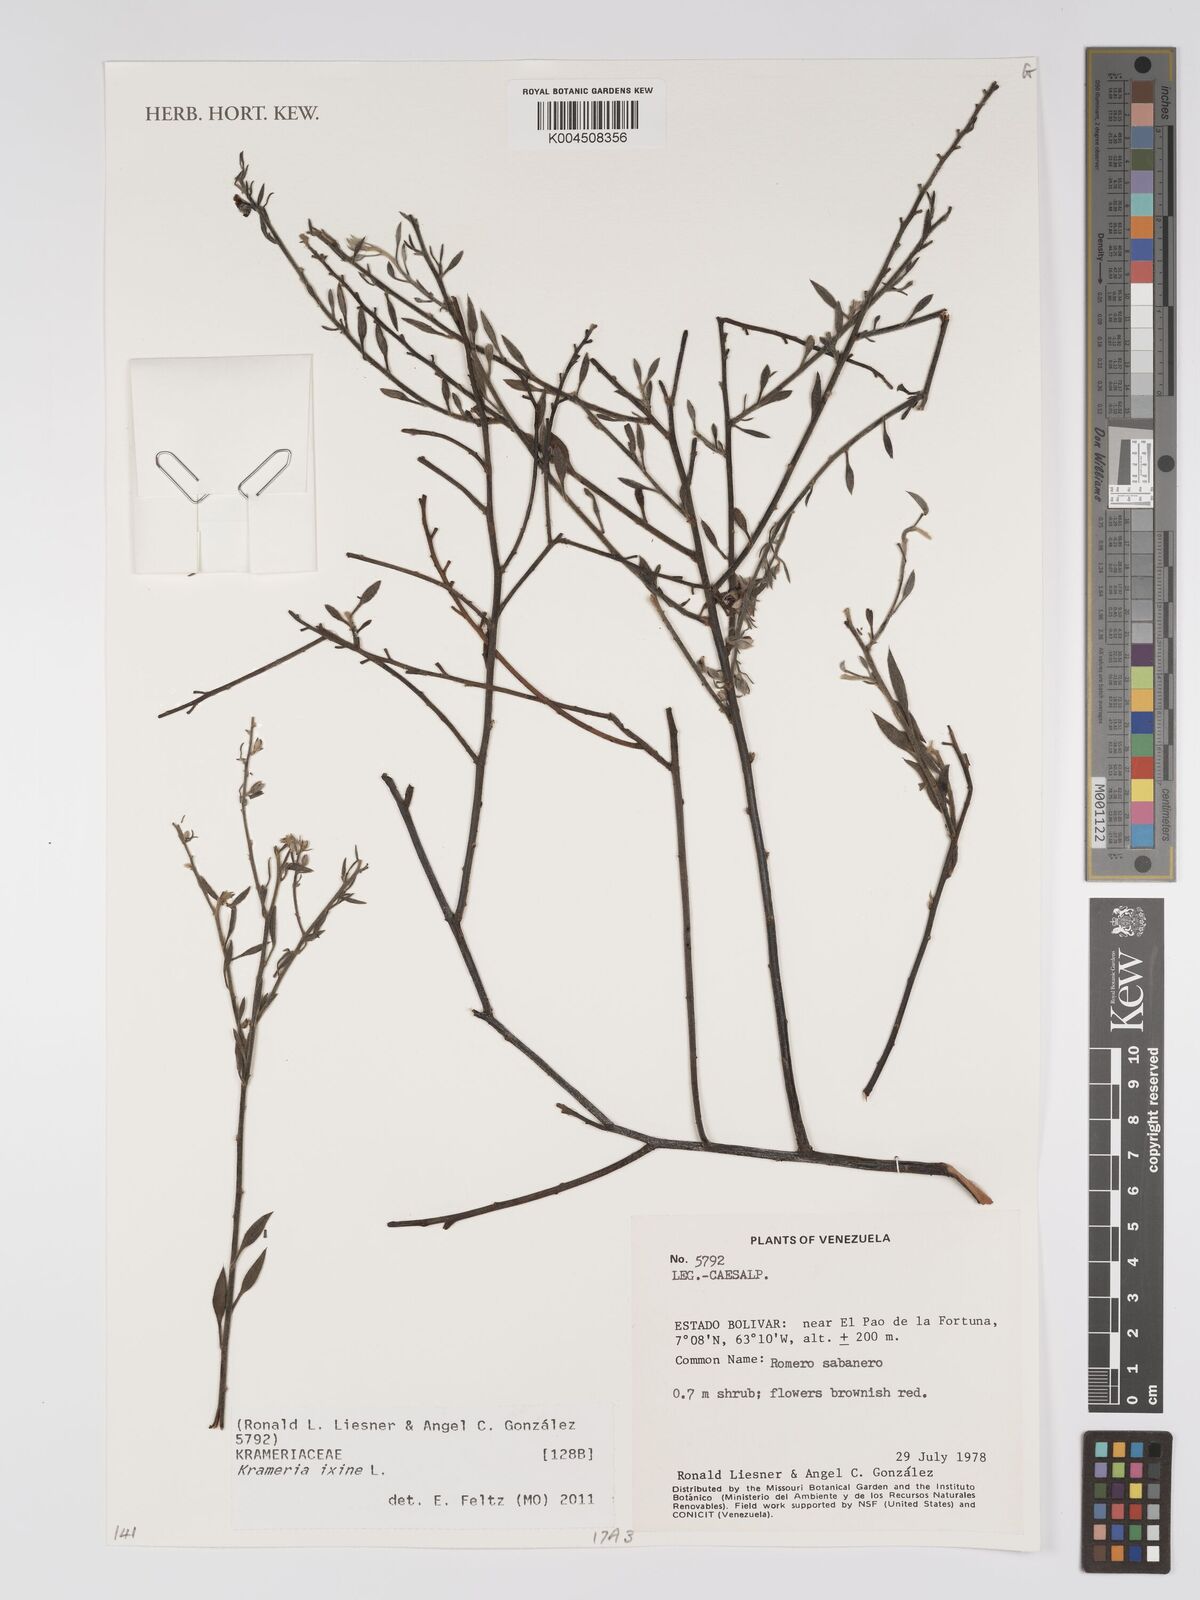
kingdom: Plantae
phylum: Tracheophyta
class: Magnoliopsida
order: Zygophyllales
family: Krameriaceae
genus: Krameria
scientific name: Krameria ixine
